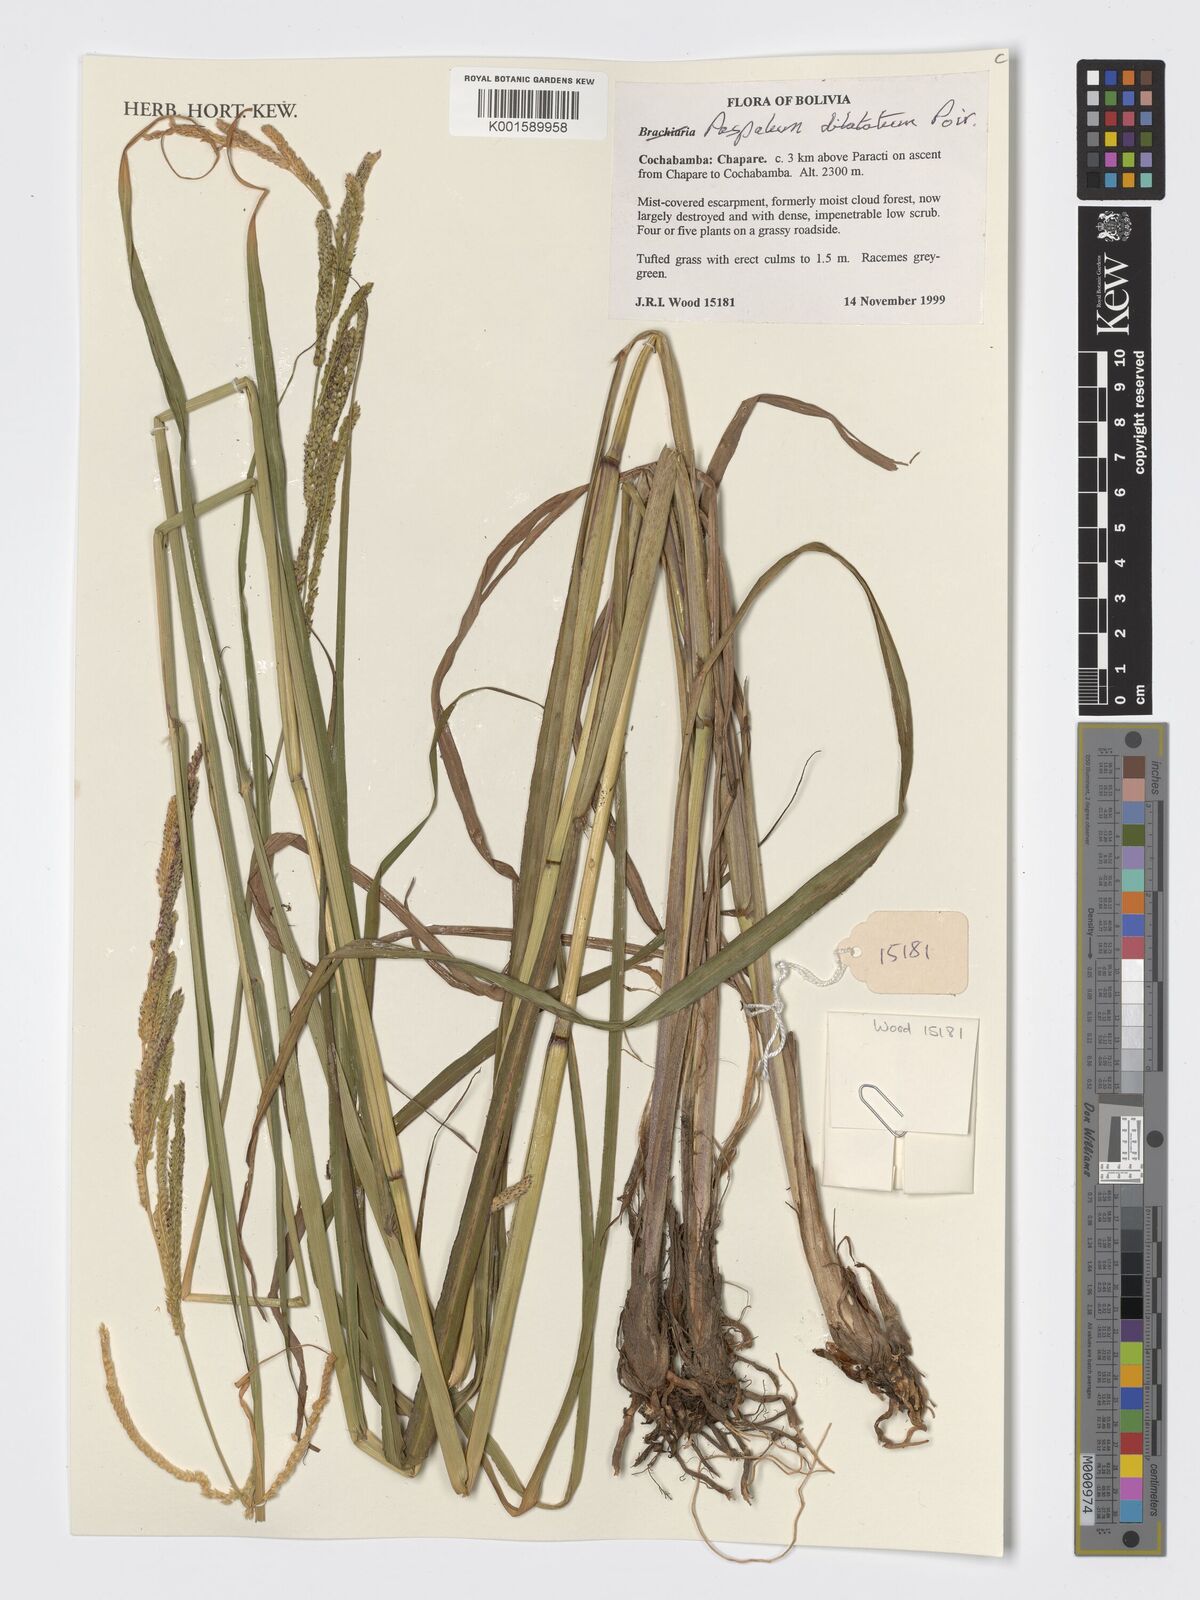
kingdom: Plantae
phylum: Tracheophyta
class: Liliopsida
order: Poales
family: Poaceae
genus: Paspalum
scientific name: Paspalum dilatatum
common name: Dallisgrass
